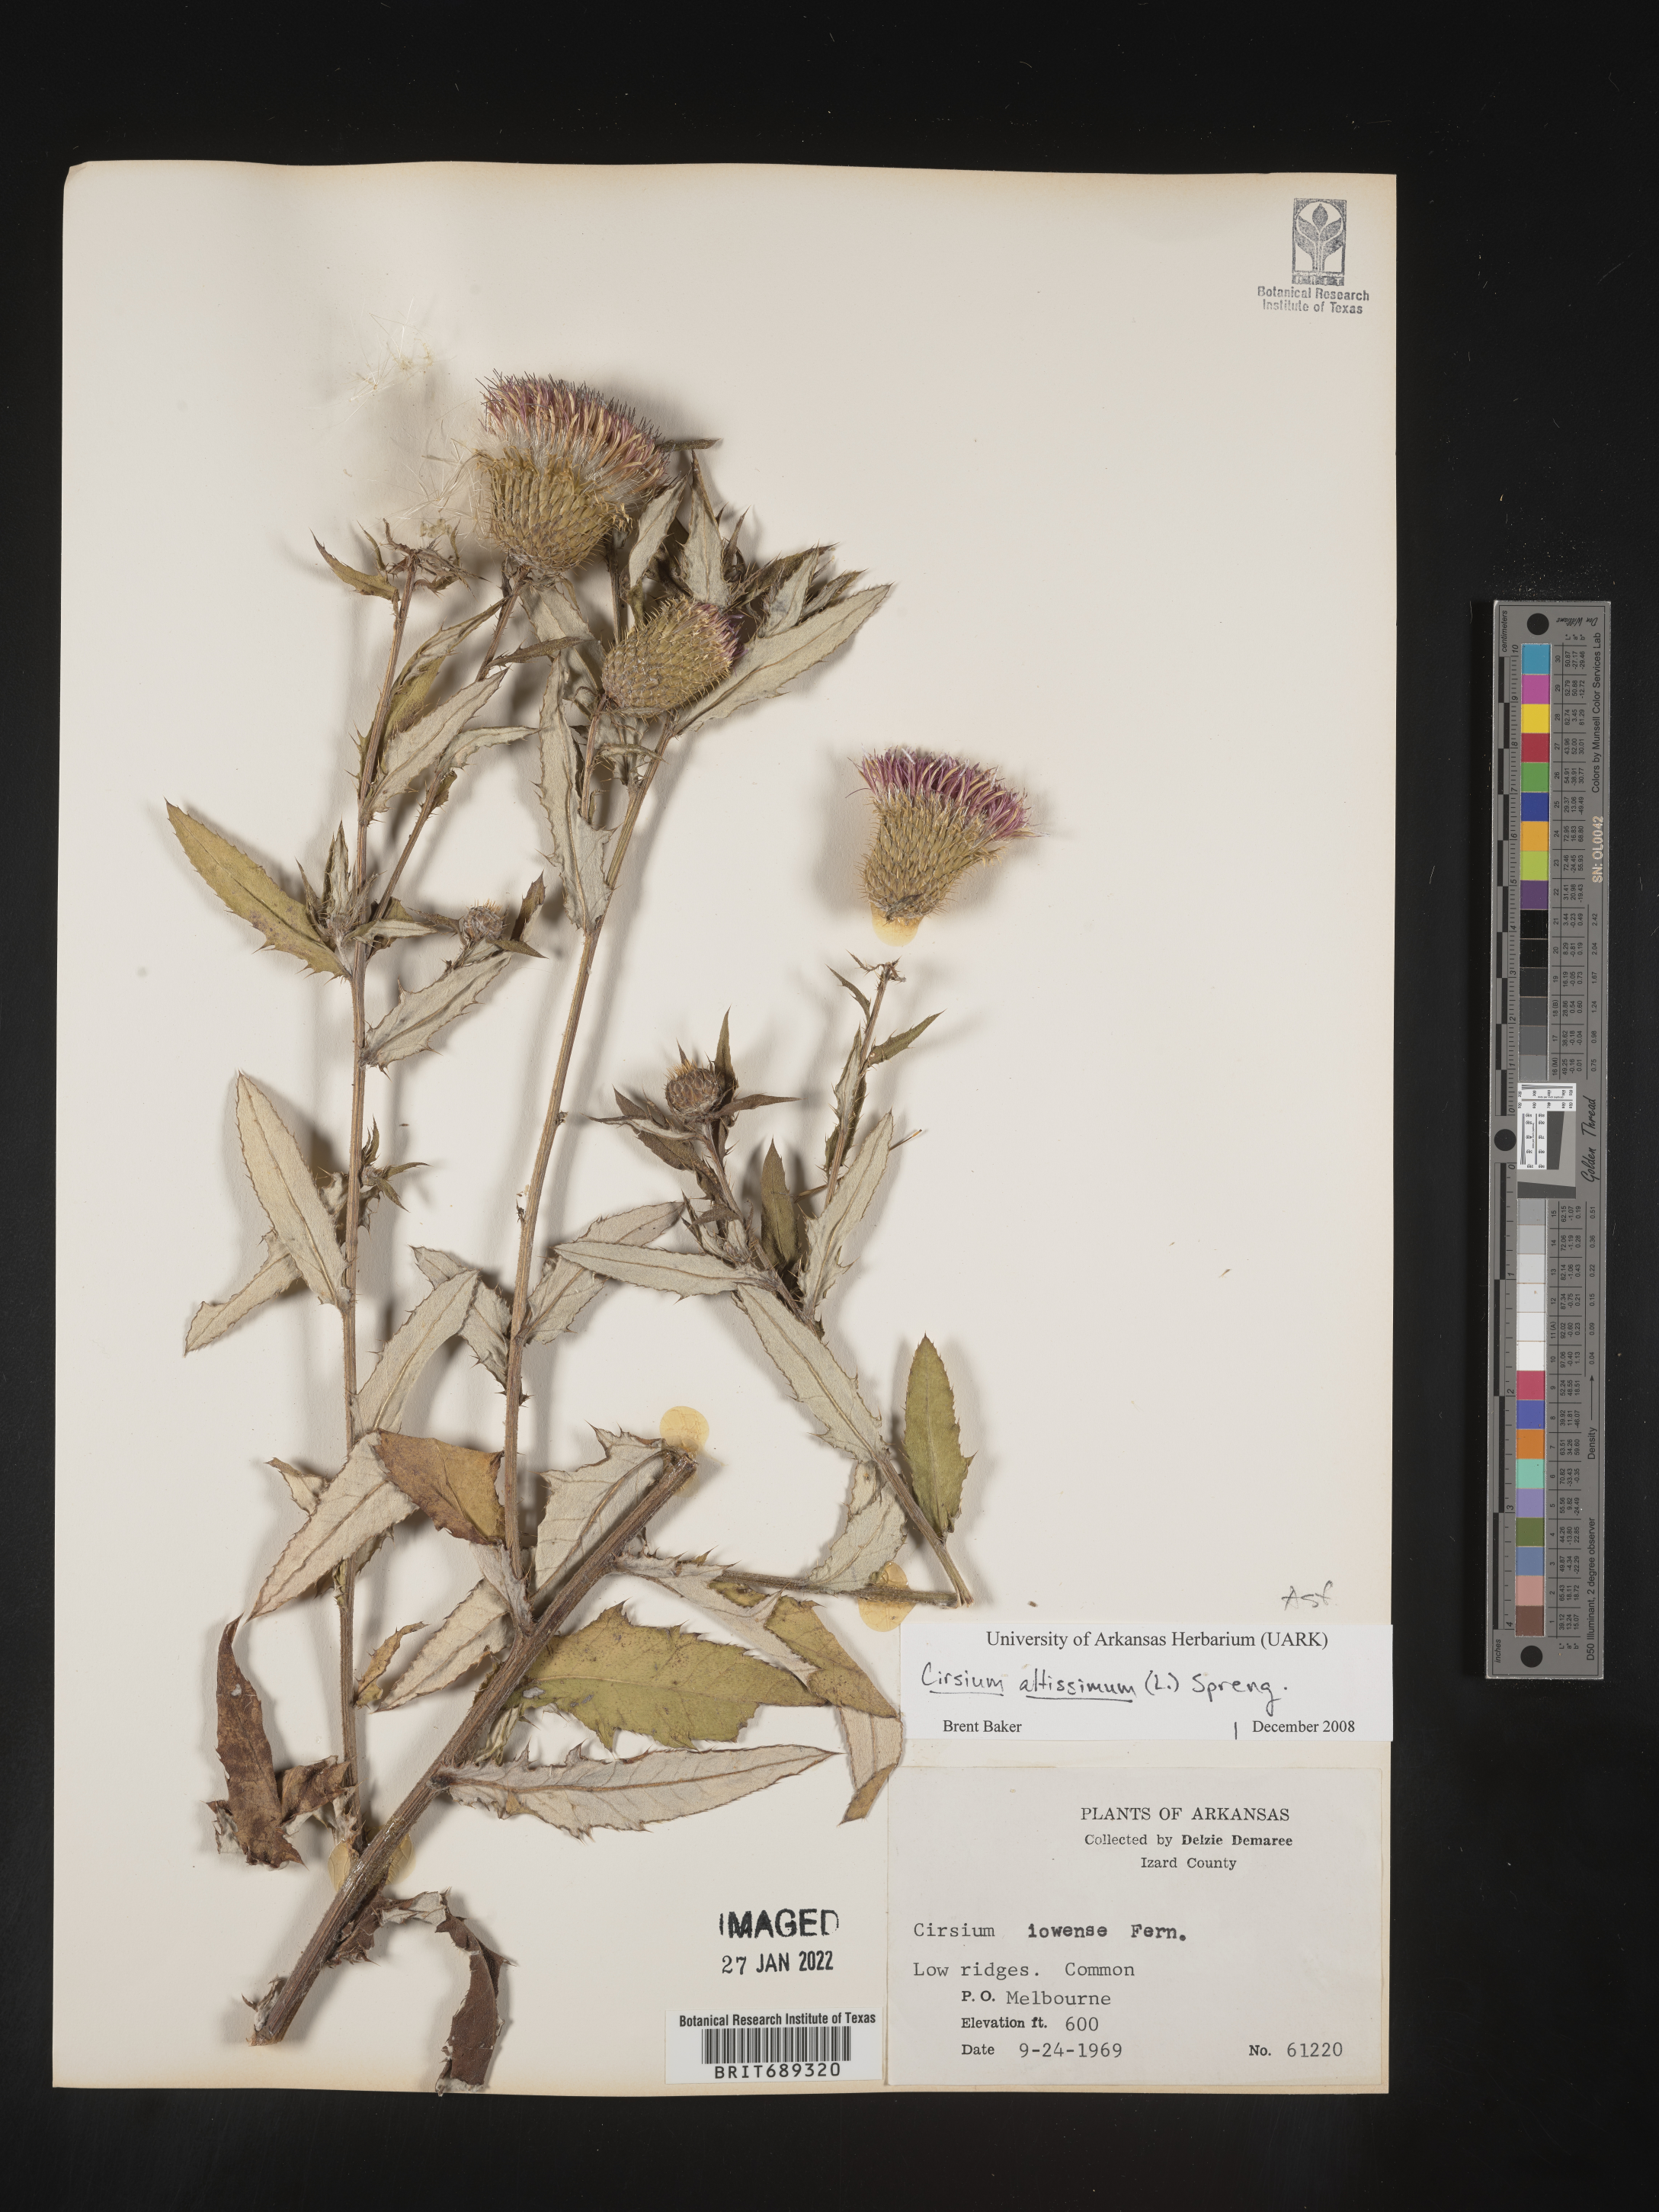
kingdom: Plantae
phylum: Tracheophyta
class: Magnoliopsida
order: Asterales
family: Asteraceae
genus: Cirsium
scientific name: Cirsium altissimum
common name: Roadside thistle
